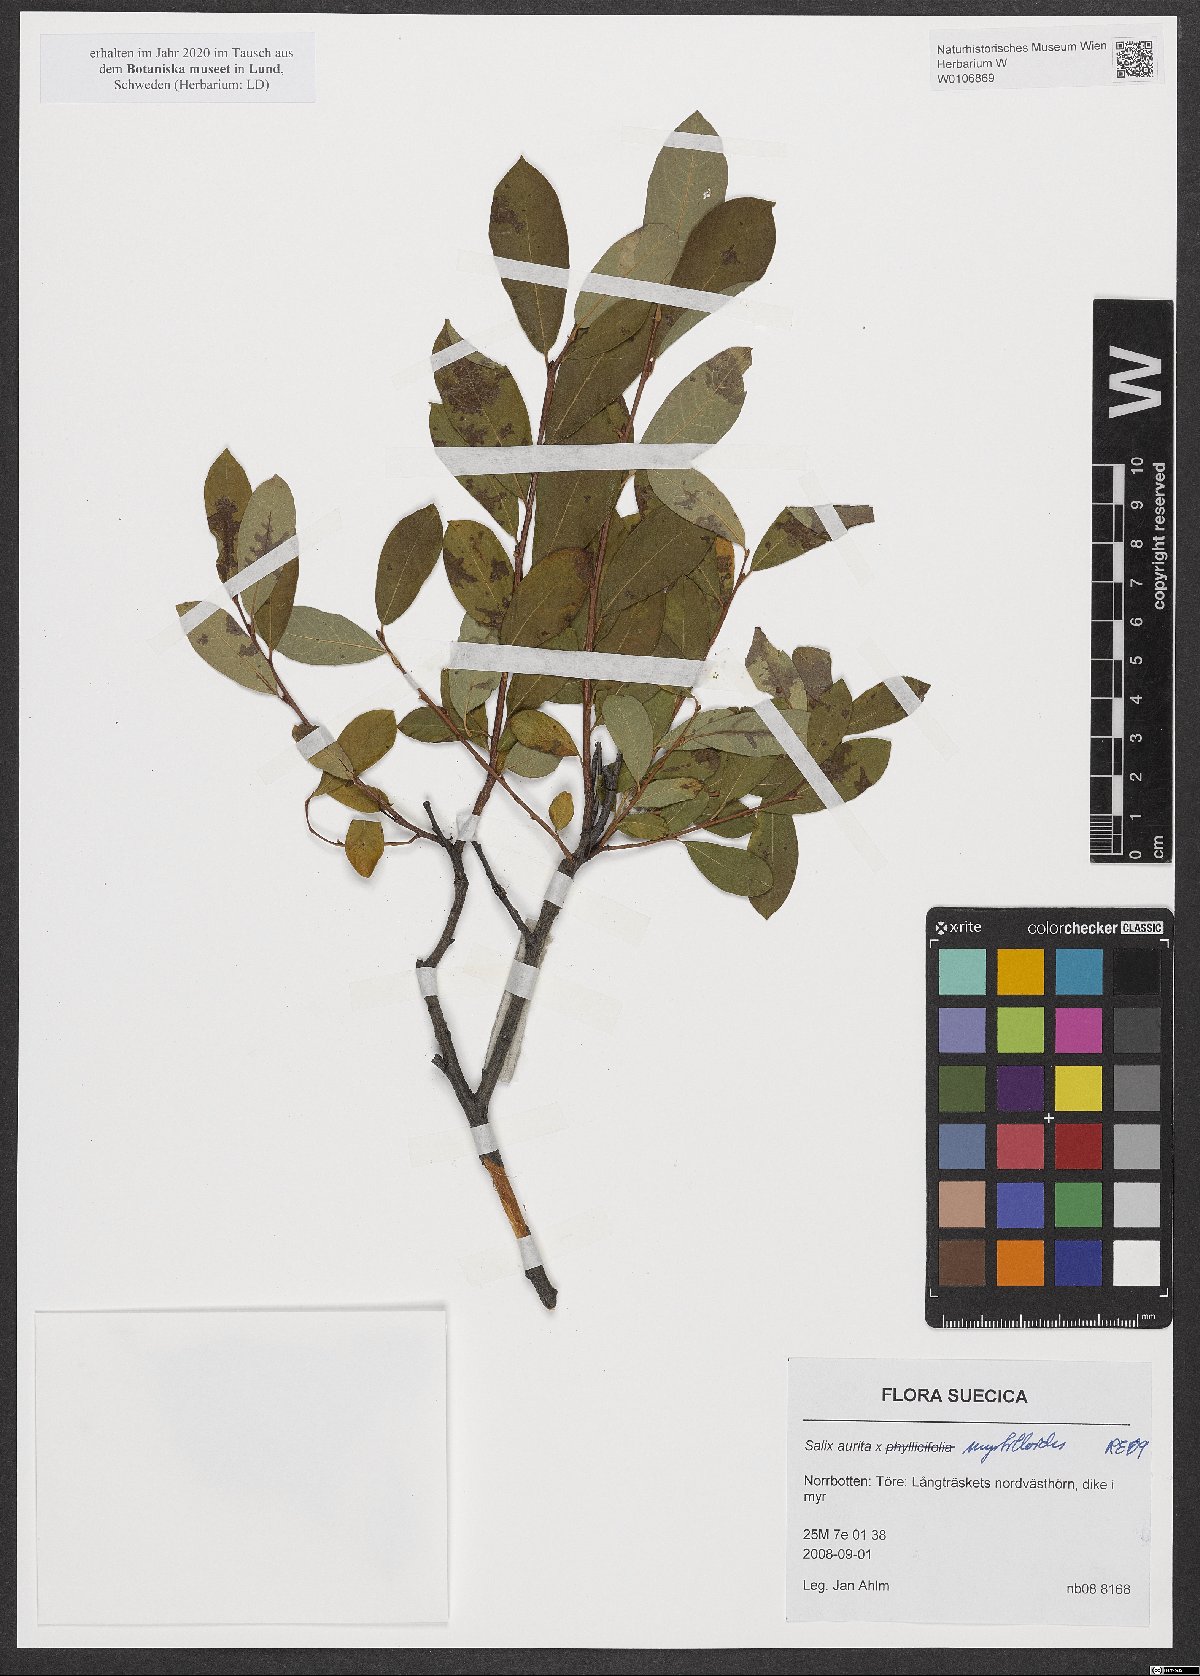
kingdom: Plantae
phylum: Tracheophyta
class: Magnoliopsida
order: Malpighiales
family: Salicaceae
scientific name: Salicaceae
